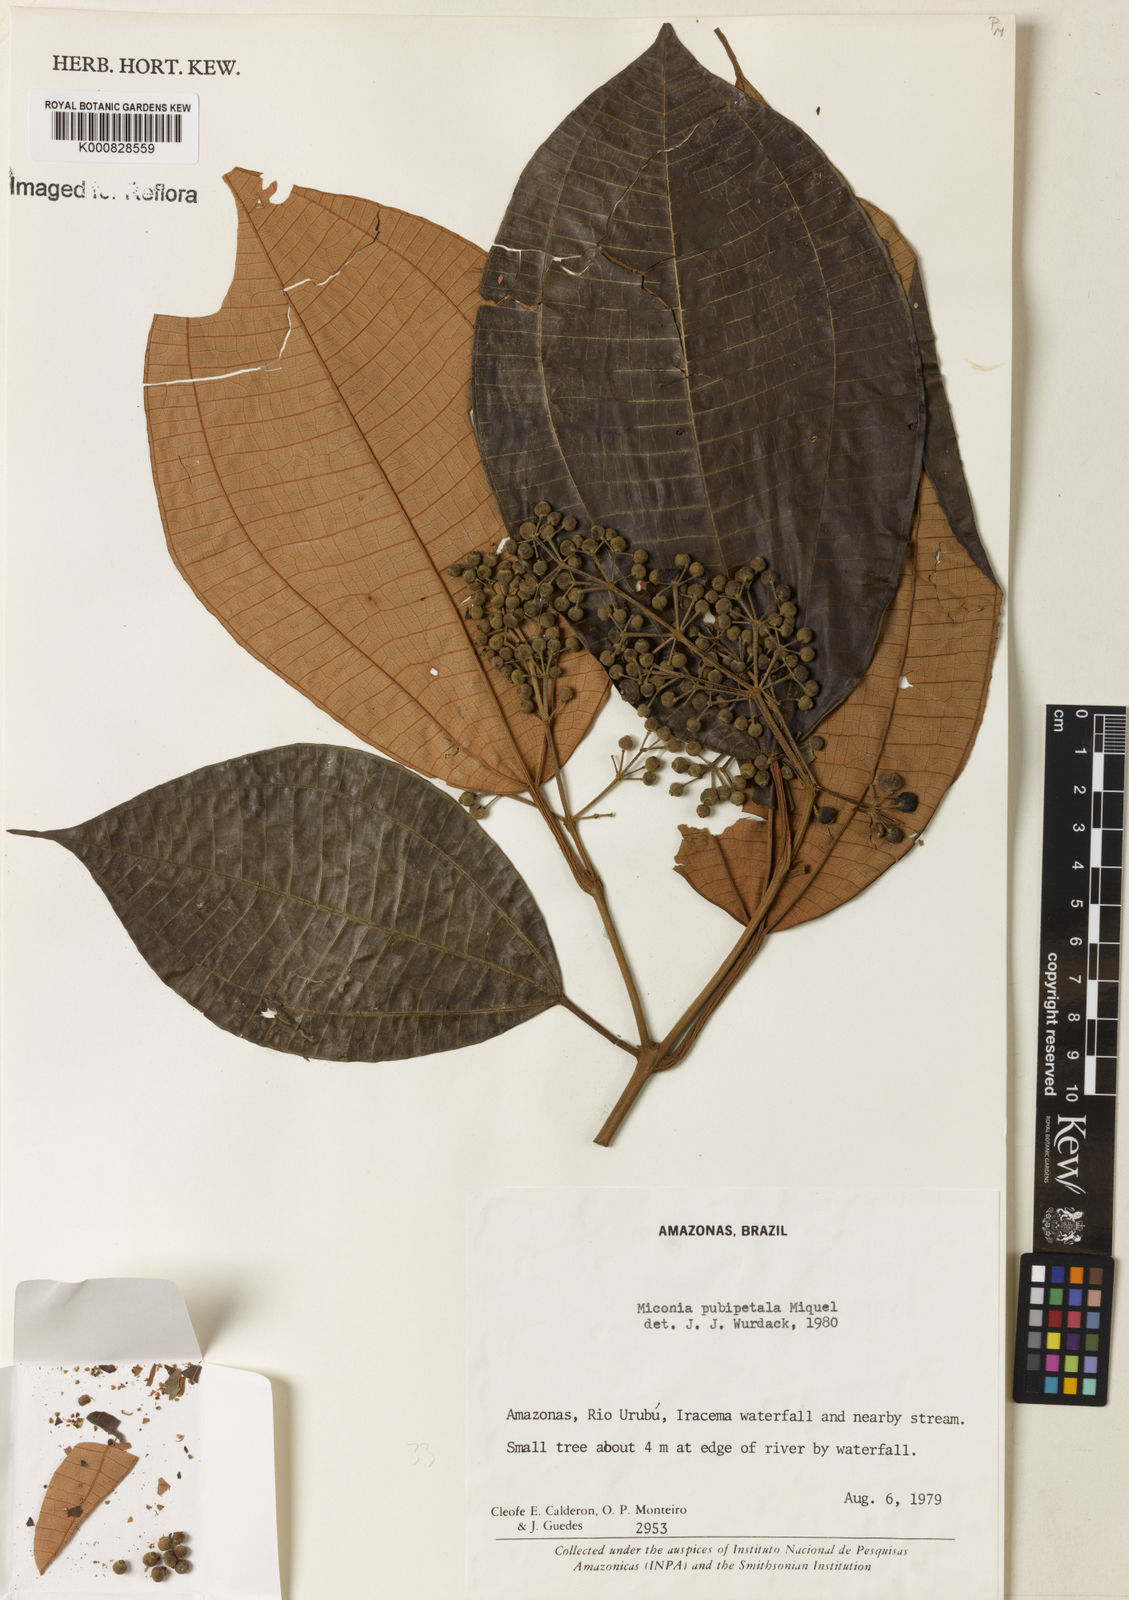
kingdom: Plantae
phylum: Tracheophyta
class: Magnoliopsida
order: Myrtales
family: Melastomataceae
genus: Miconia
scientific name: Miconia pubipetala
